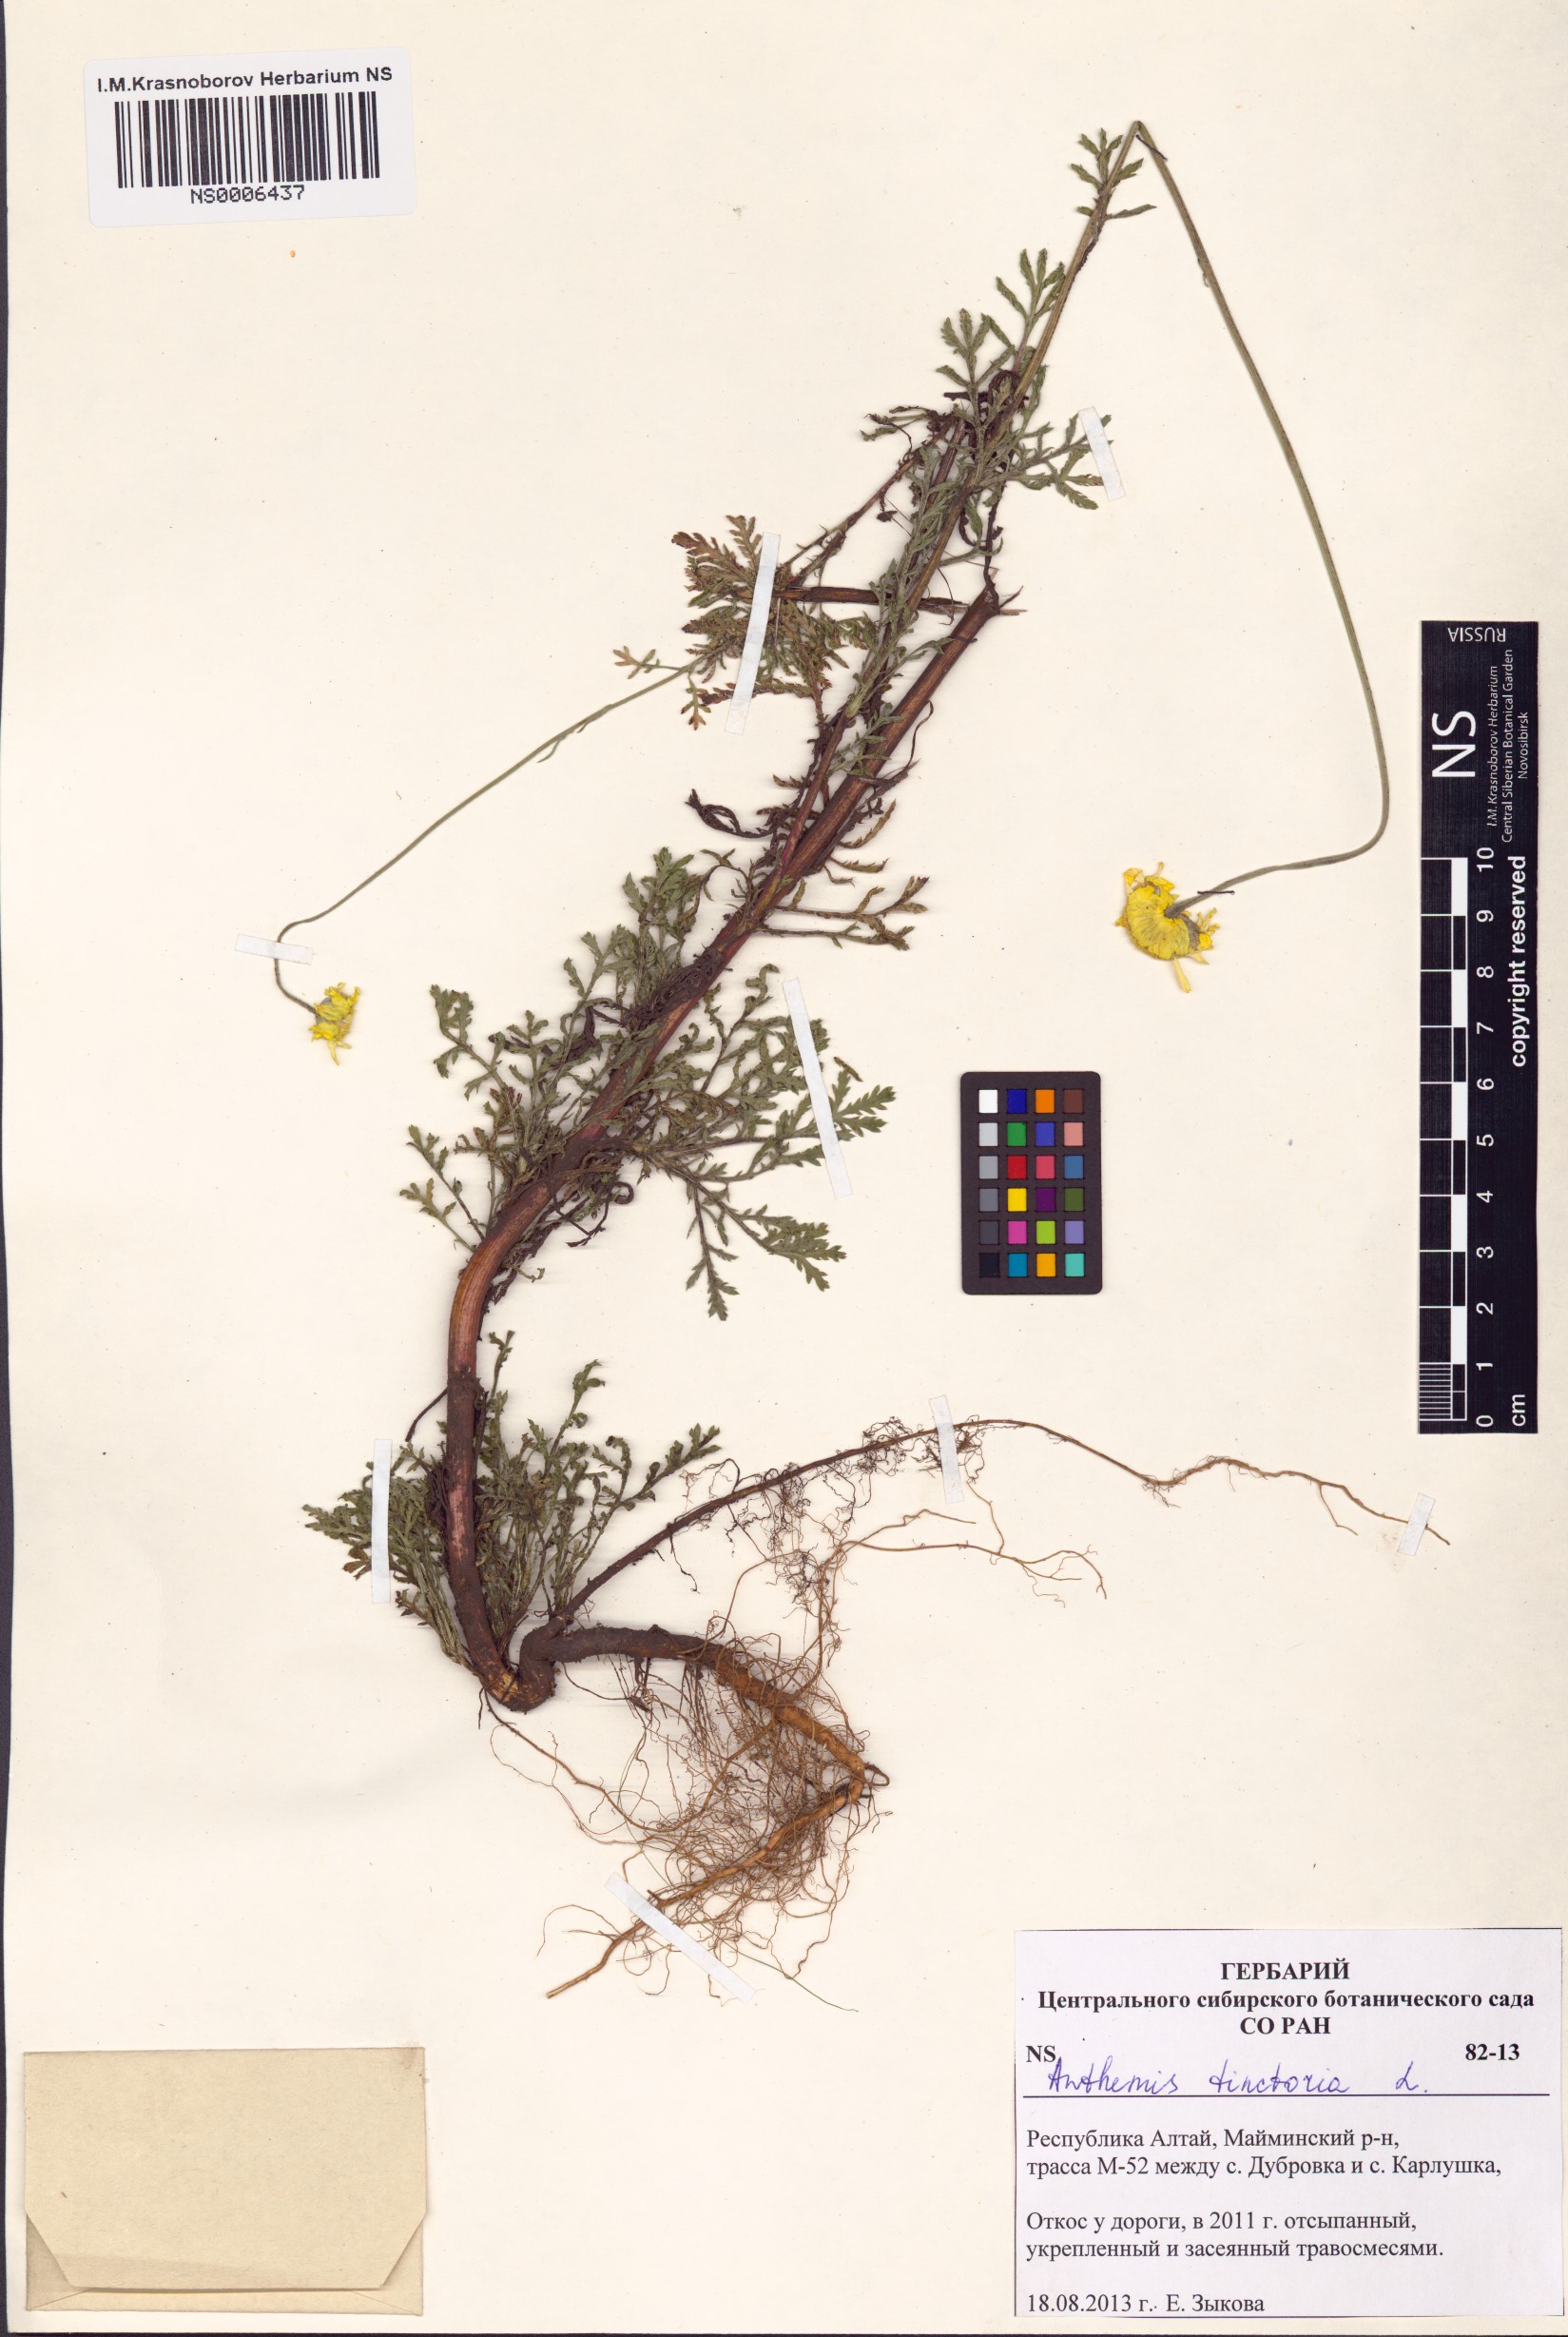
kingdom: Plantae
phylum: Tracheophyta
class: Magnoliopsida
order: Asterales
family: Asteraceae
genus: Cota
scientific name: Cota tinctoria
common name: Golden chamomile
